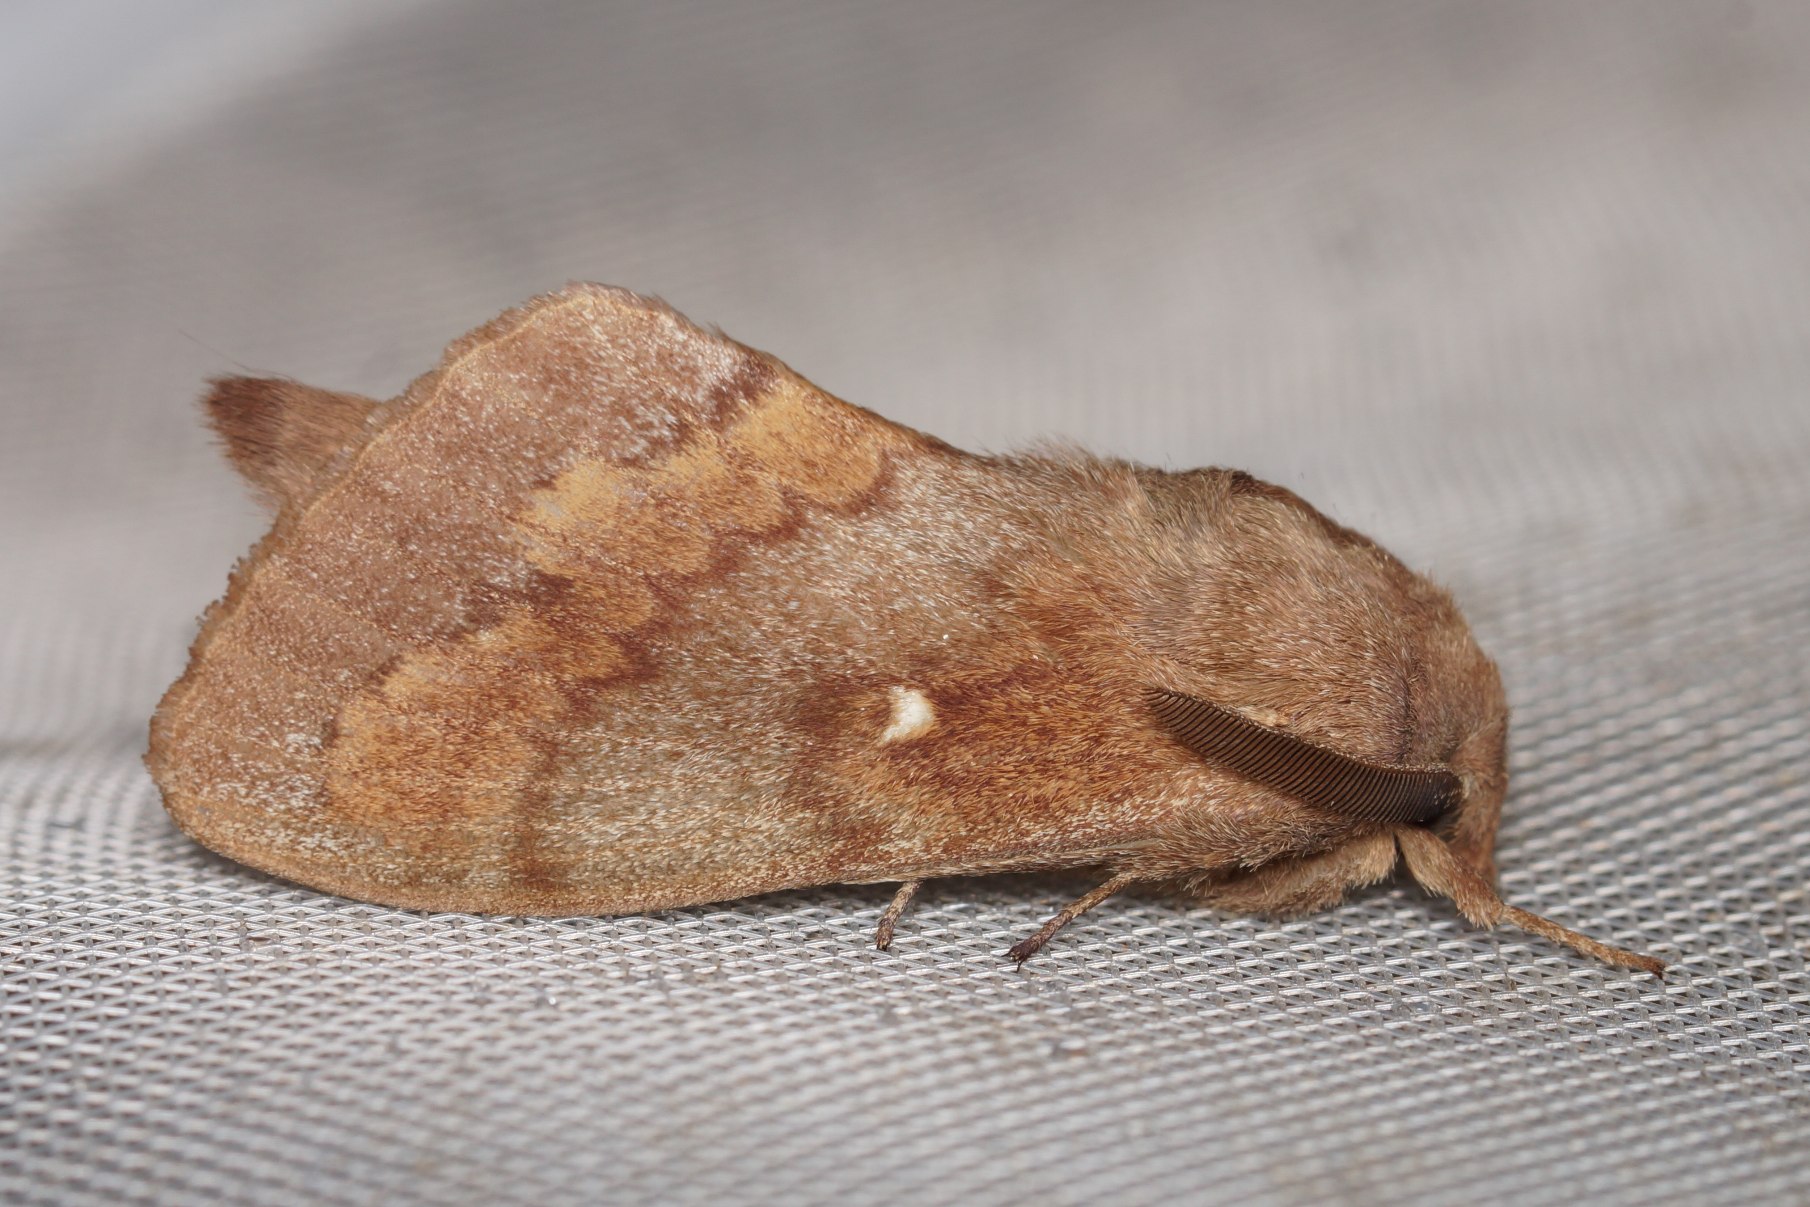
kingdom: Animalia
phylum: Arthropoda
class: Insecta
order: Lepidoptera
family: Lasiocampidae
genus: Dendrolimus
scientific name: Dendrolimus pini
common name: Fyrrespinder
